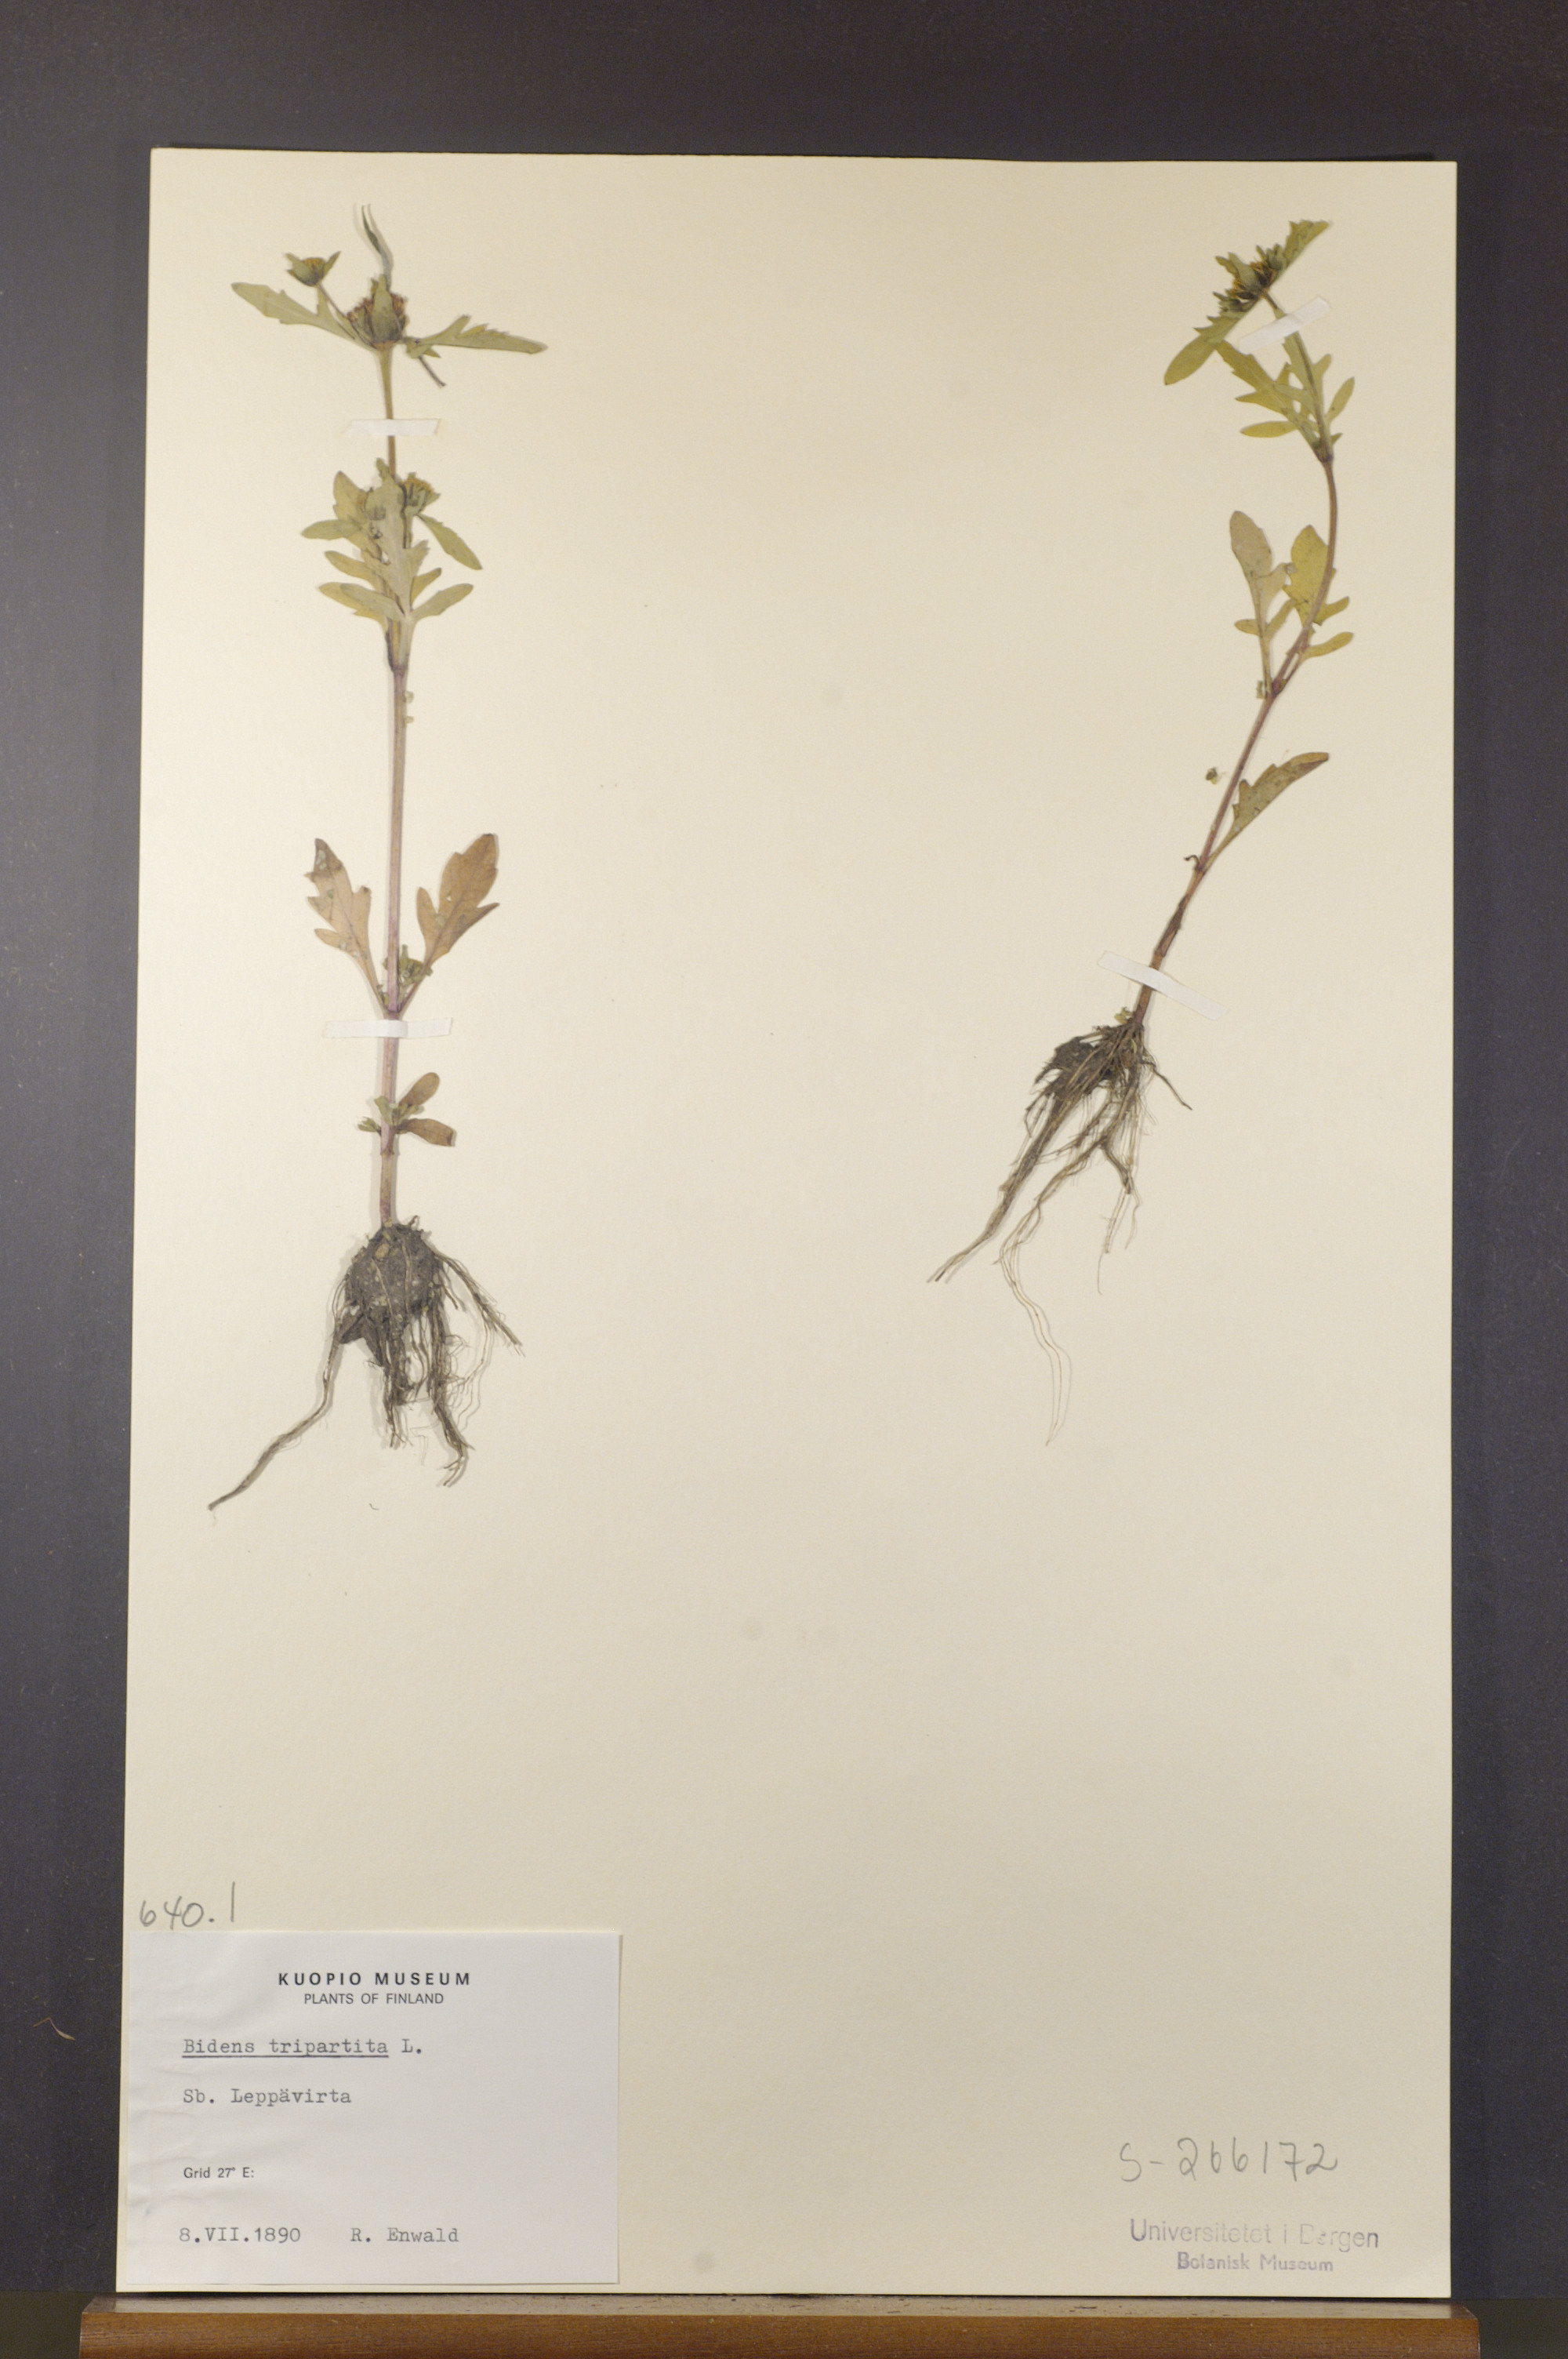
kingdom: Plantae
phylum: Tracheophyta
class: Magnoliopsida
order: Asterales
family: Asteraceae
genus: Bidens
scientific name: Bidens tripartita
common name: Trifid bur-marigold
